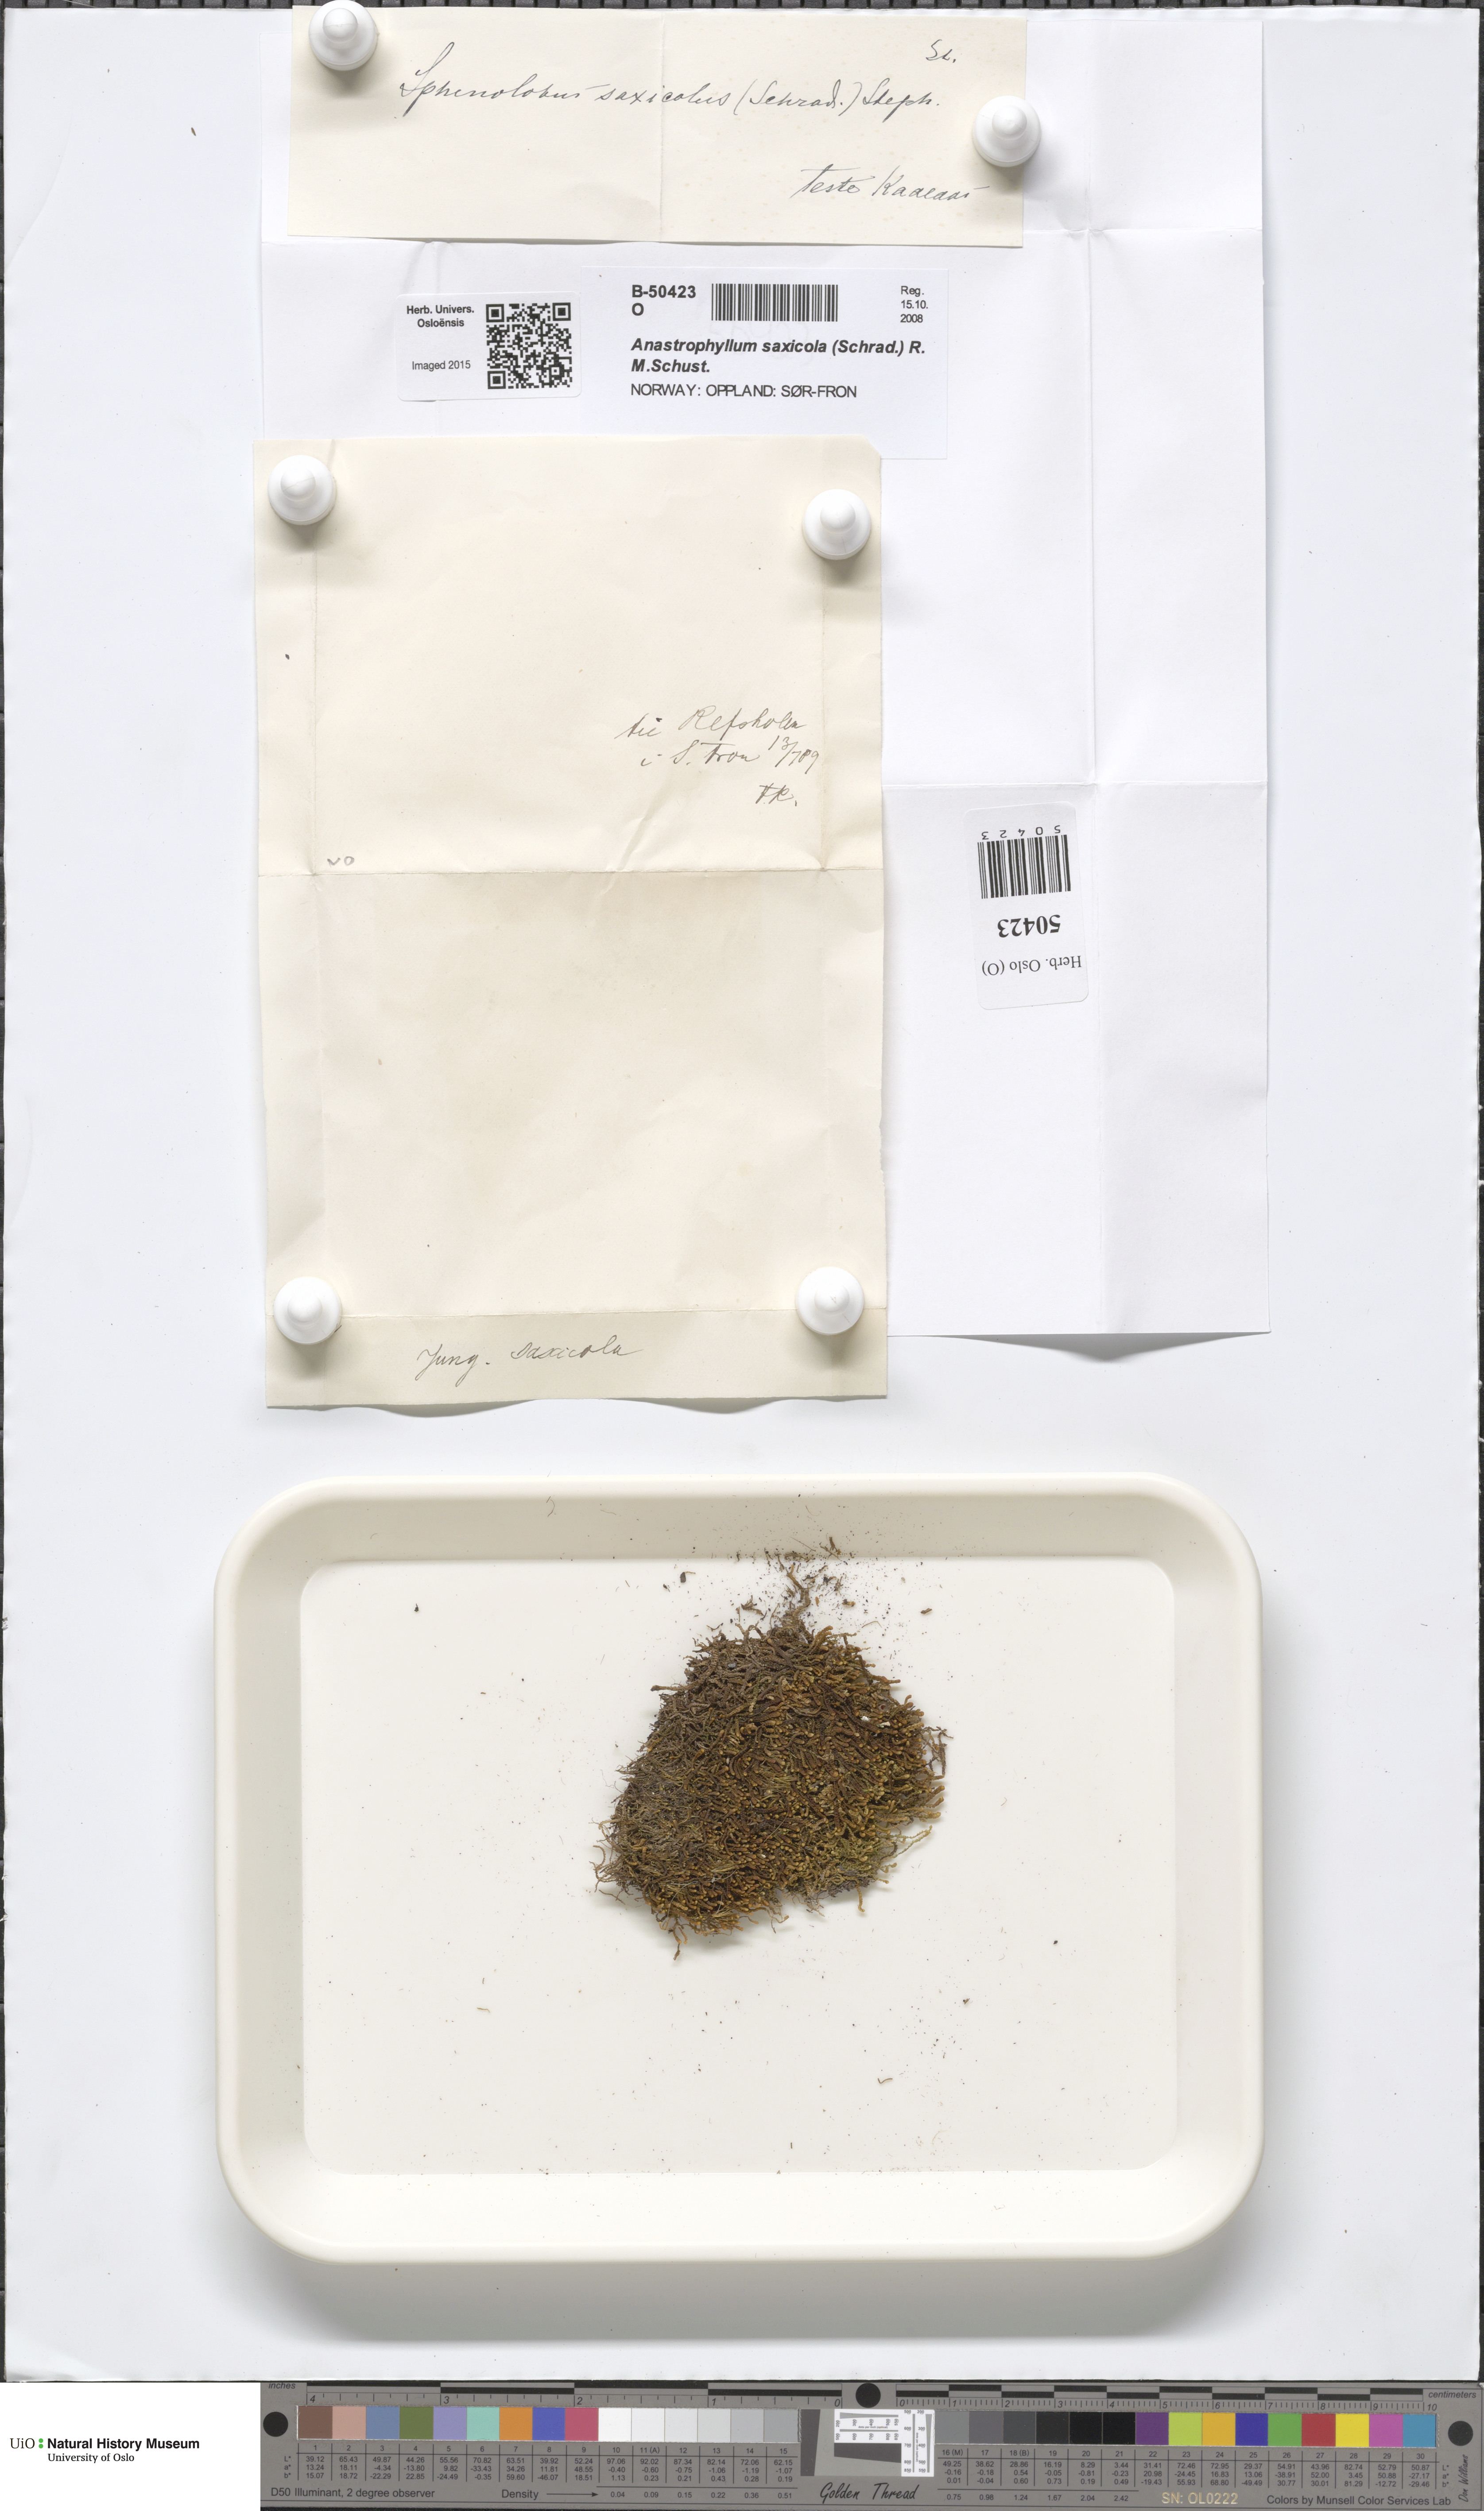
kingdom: Plantae
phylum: Marchantiophyta
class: Jungermanniopsida
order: Jungermanniales
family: Anastrophyllaceae
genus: Sphenolobus
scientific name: Sphenolobus saxicola
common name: Curled notchwort
